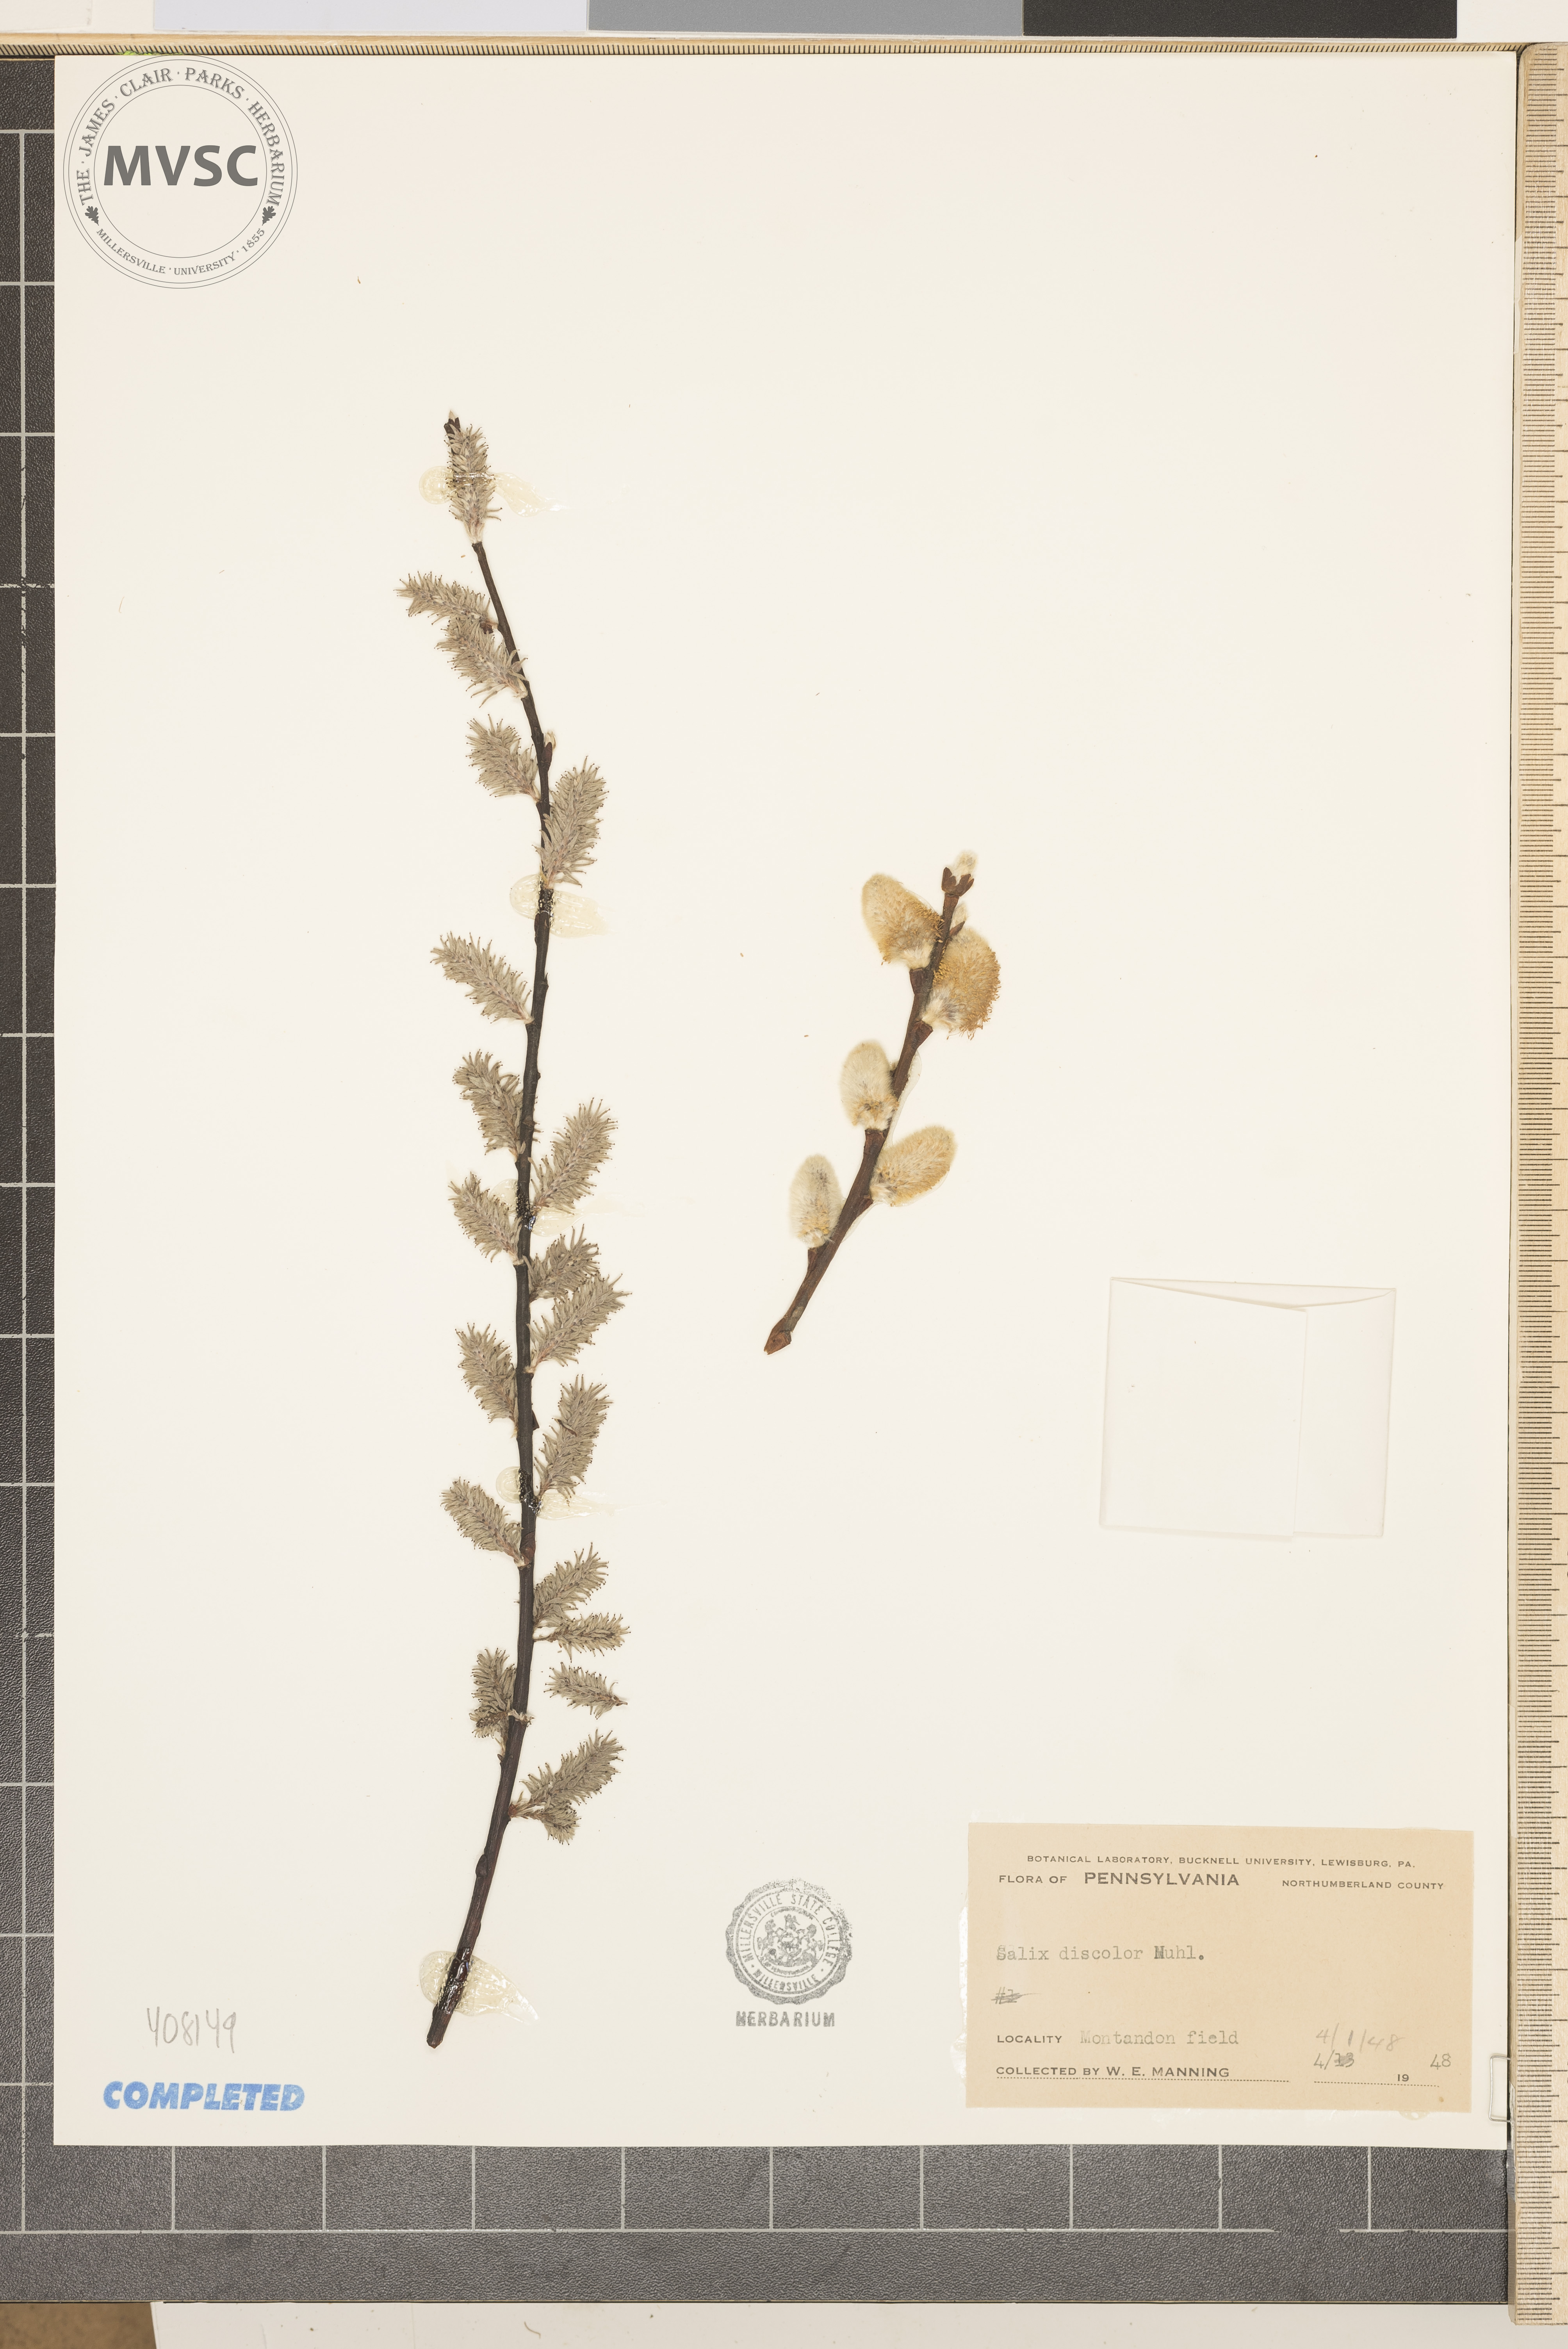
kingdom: Plantae
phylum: Tracheophyta
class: Magnoliopsida
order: Malpighiales
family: Salicaceae
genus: Salix
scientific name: Salix discolor
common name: Glaucous willow
